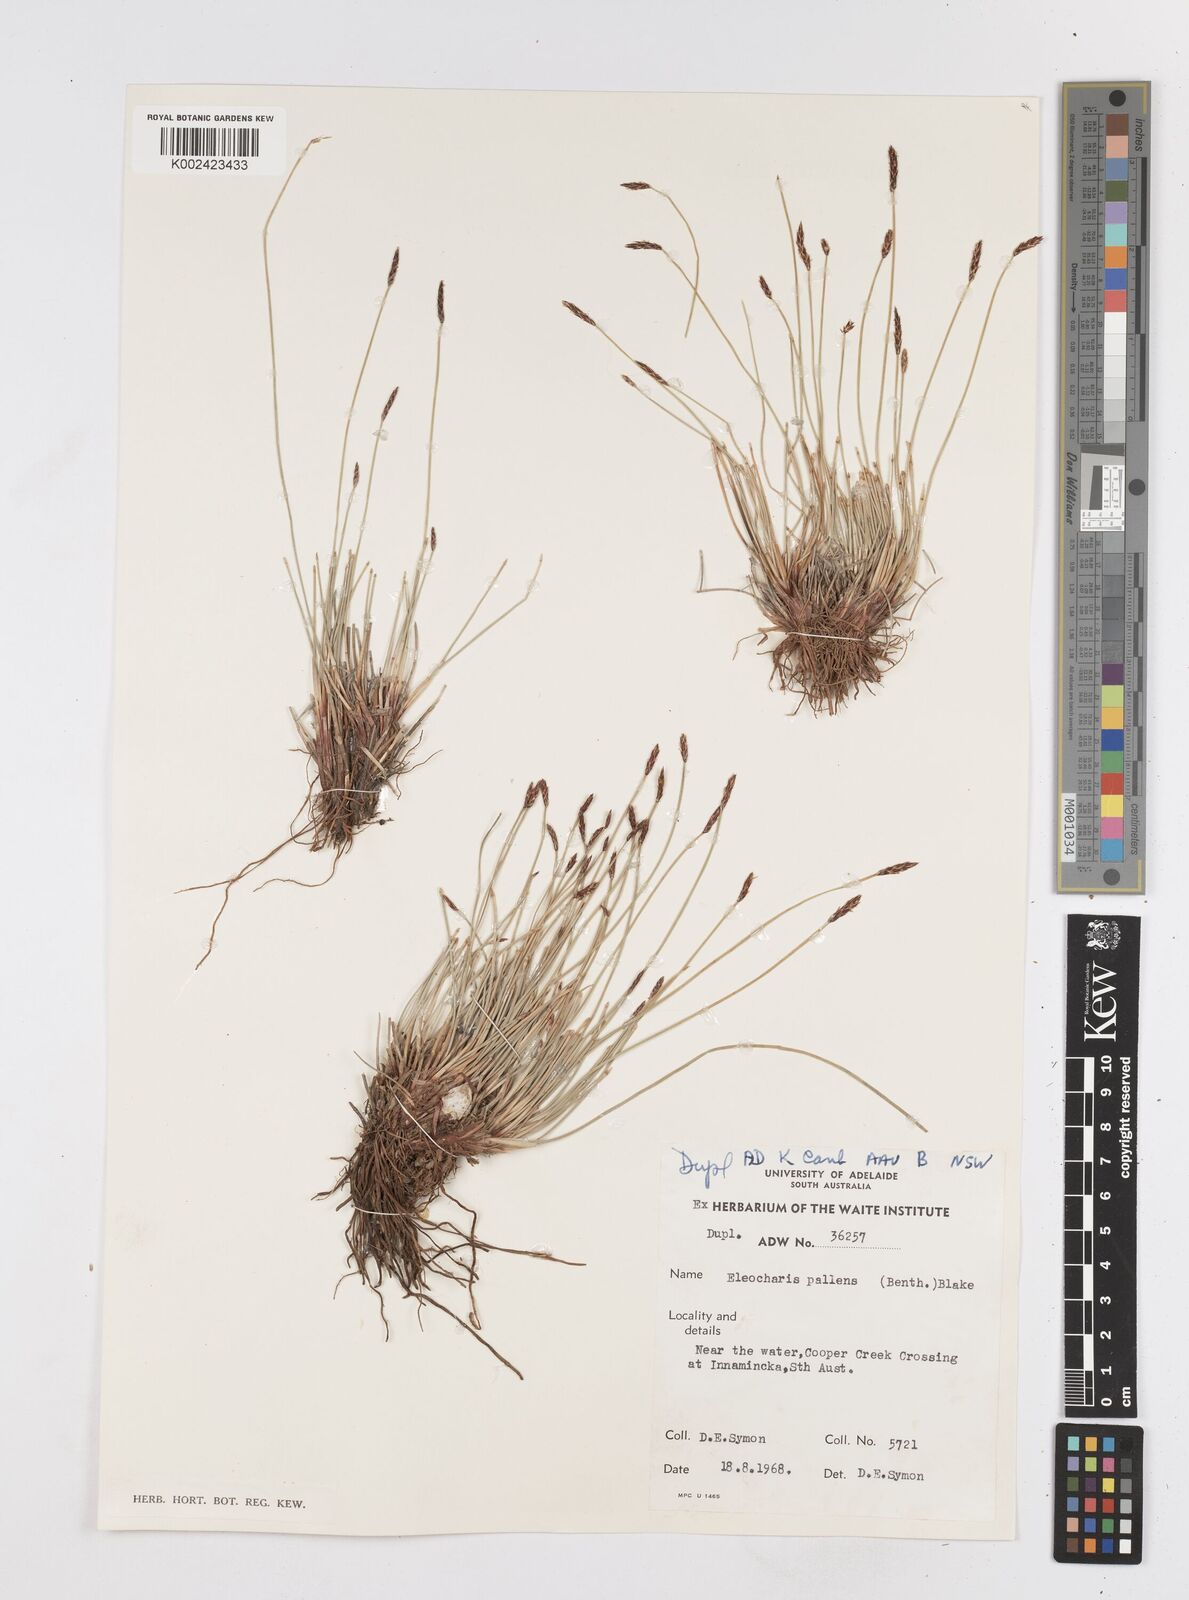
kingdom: Plantae
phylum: Tracheophyta
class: Liliopsida
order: Poales
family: Cyperaceae
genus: Eleocharis
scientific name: Eleocharis acuta
